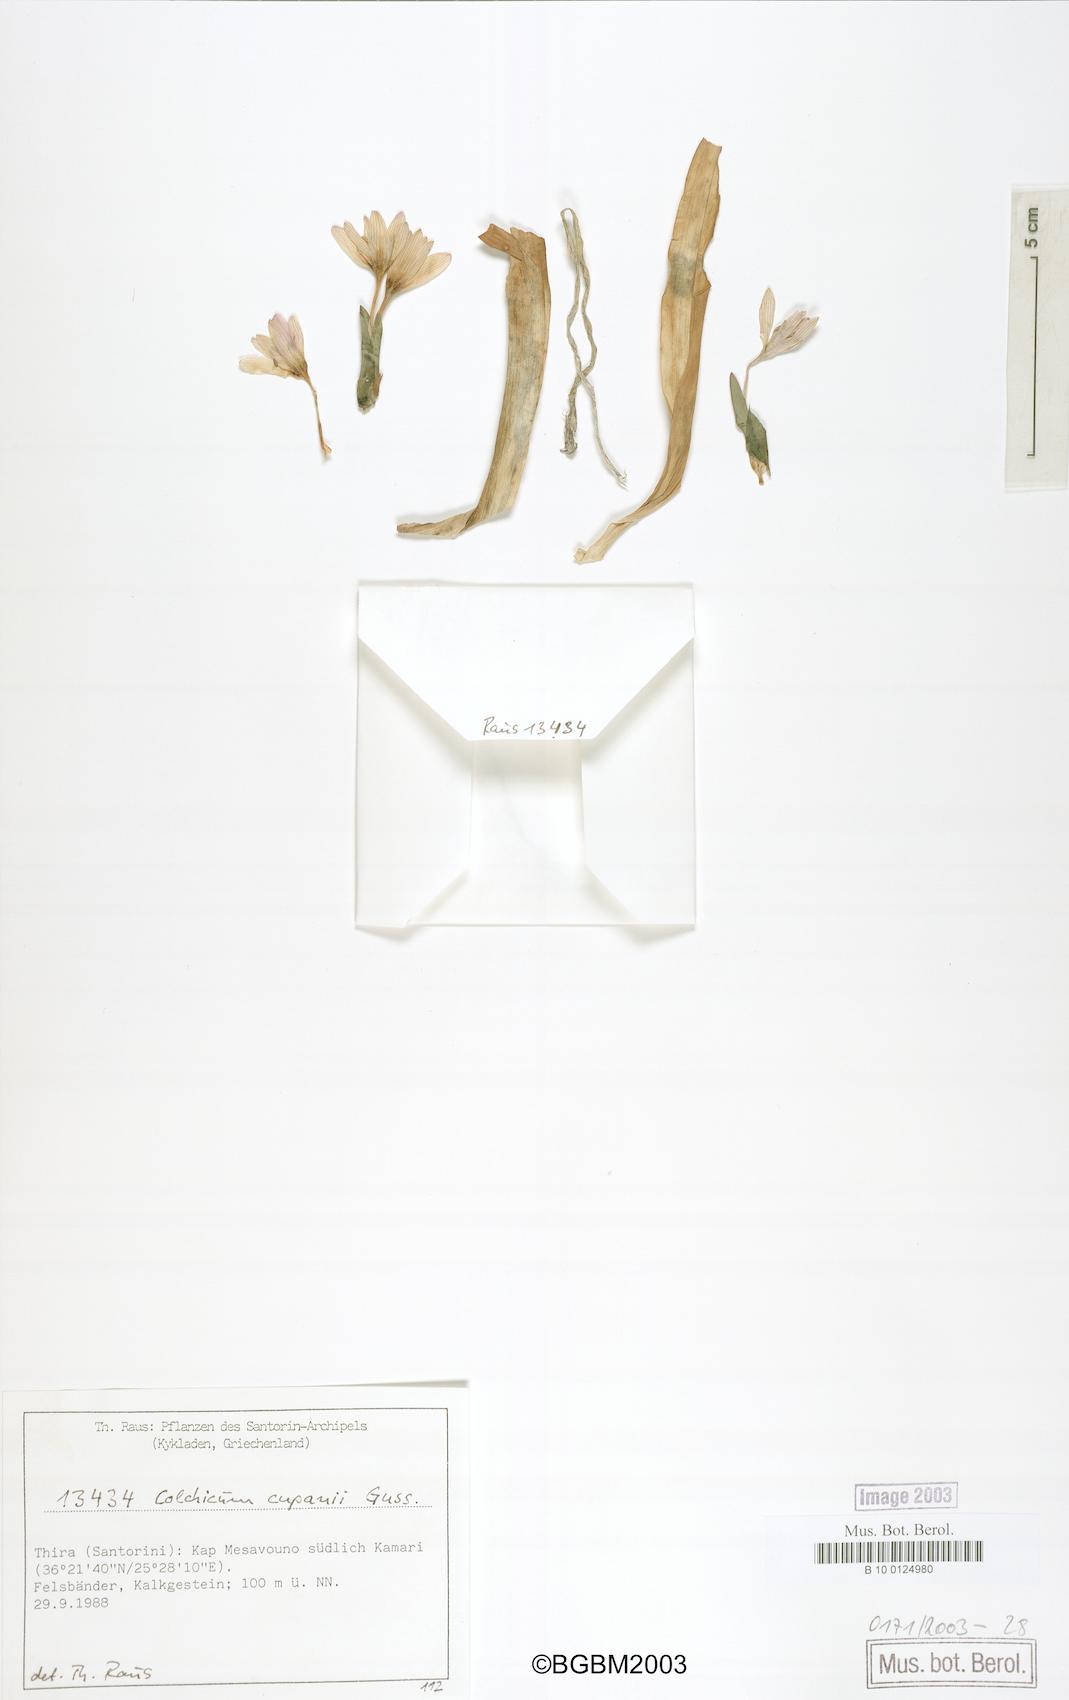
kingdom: Plantae
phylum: Tracheophyta
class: Liliopsida
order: Liliales
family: Colchicaceae
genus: Colchicum
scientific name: Colchicum cupanii
